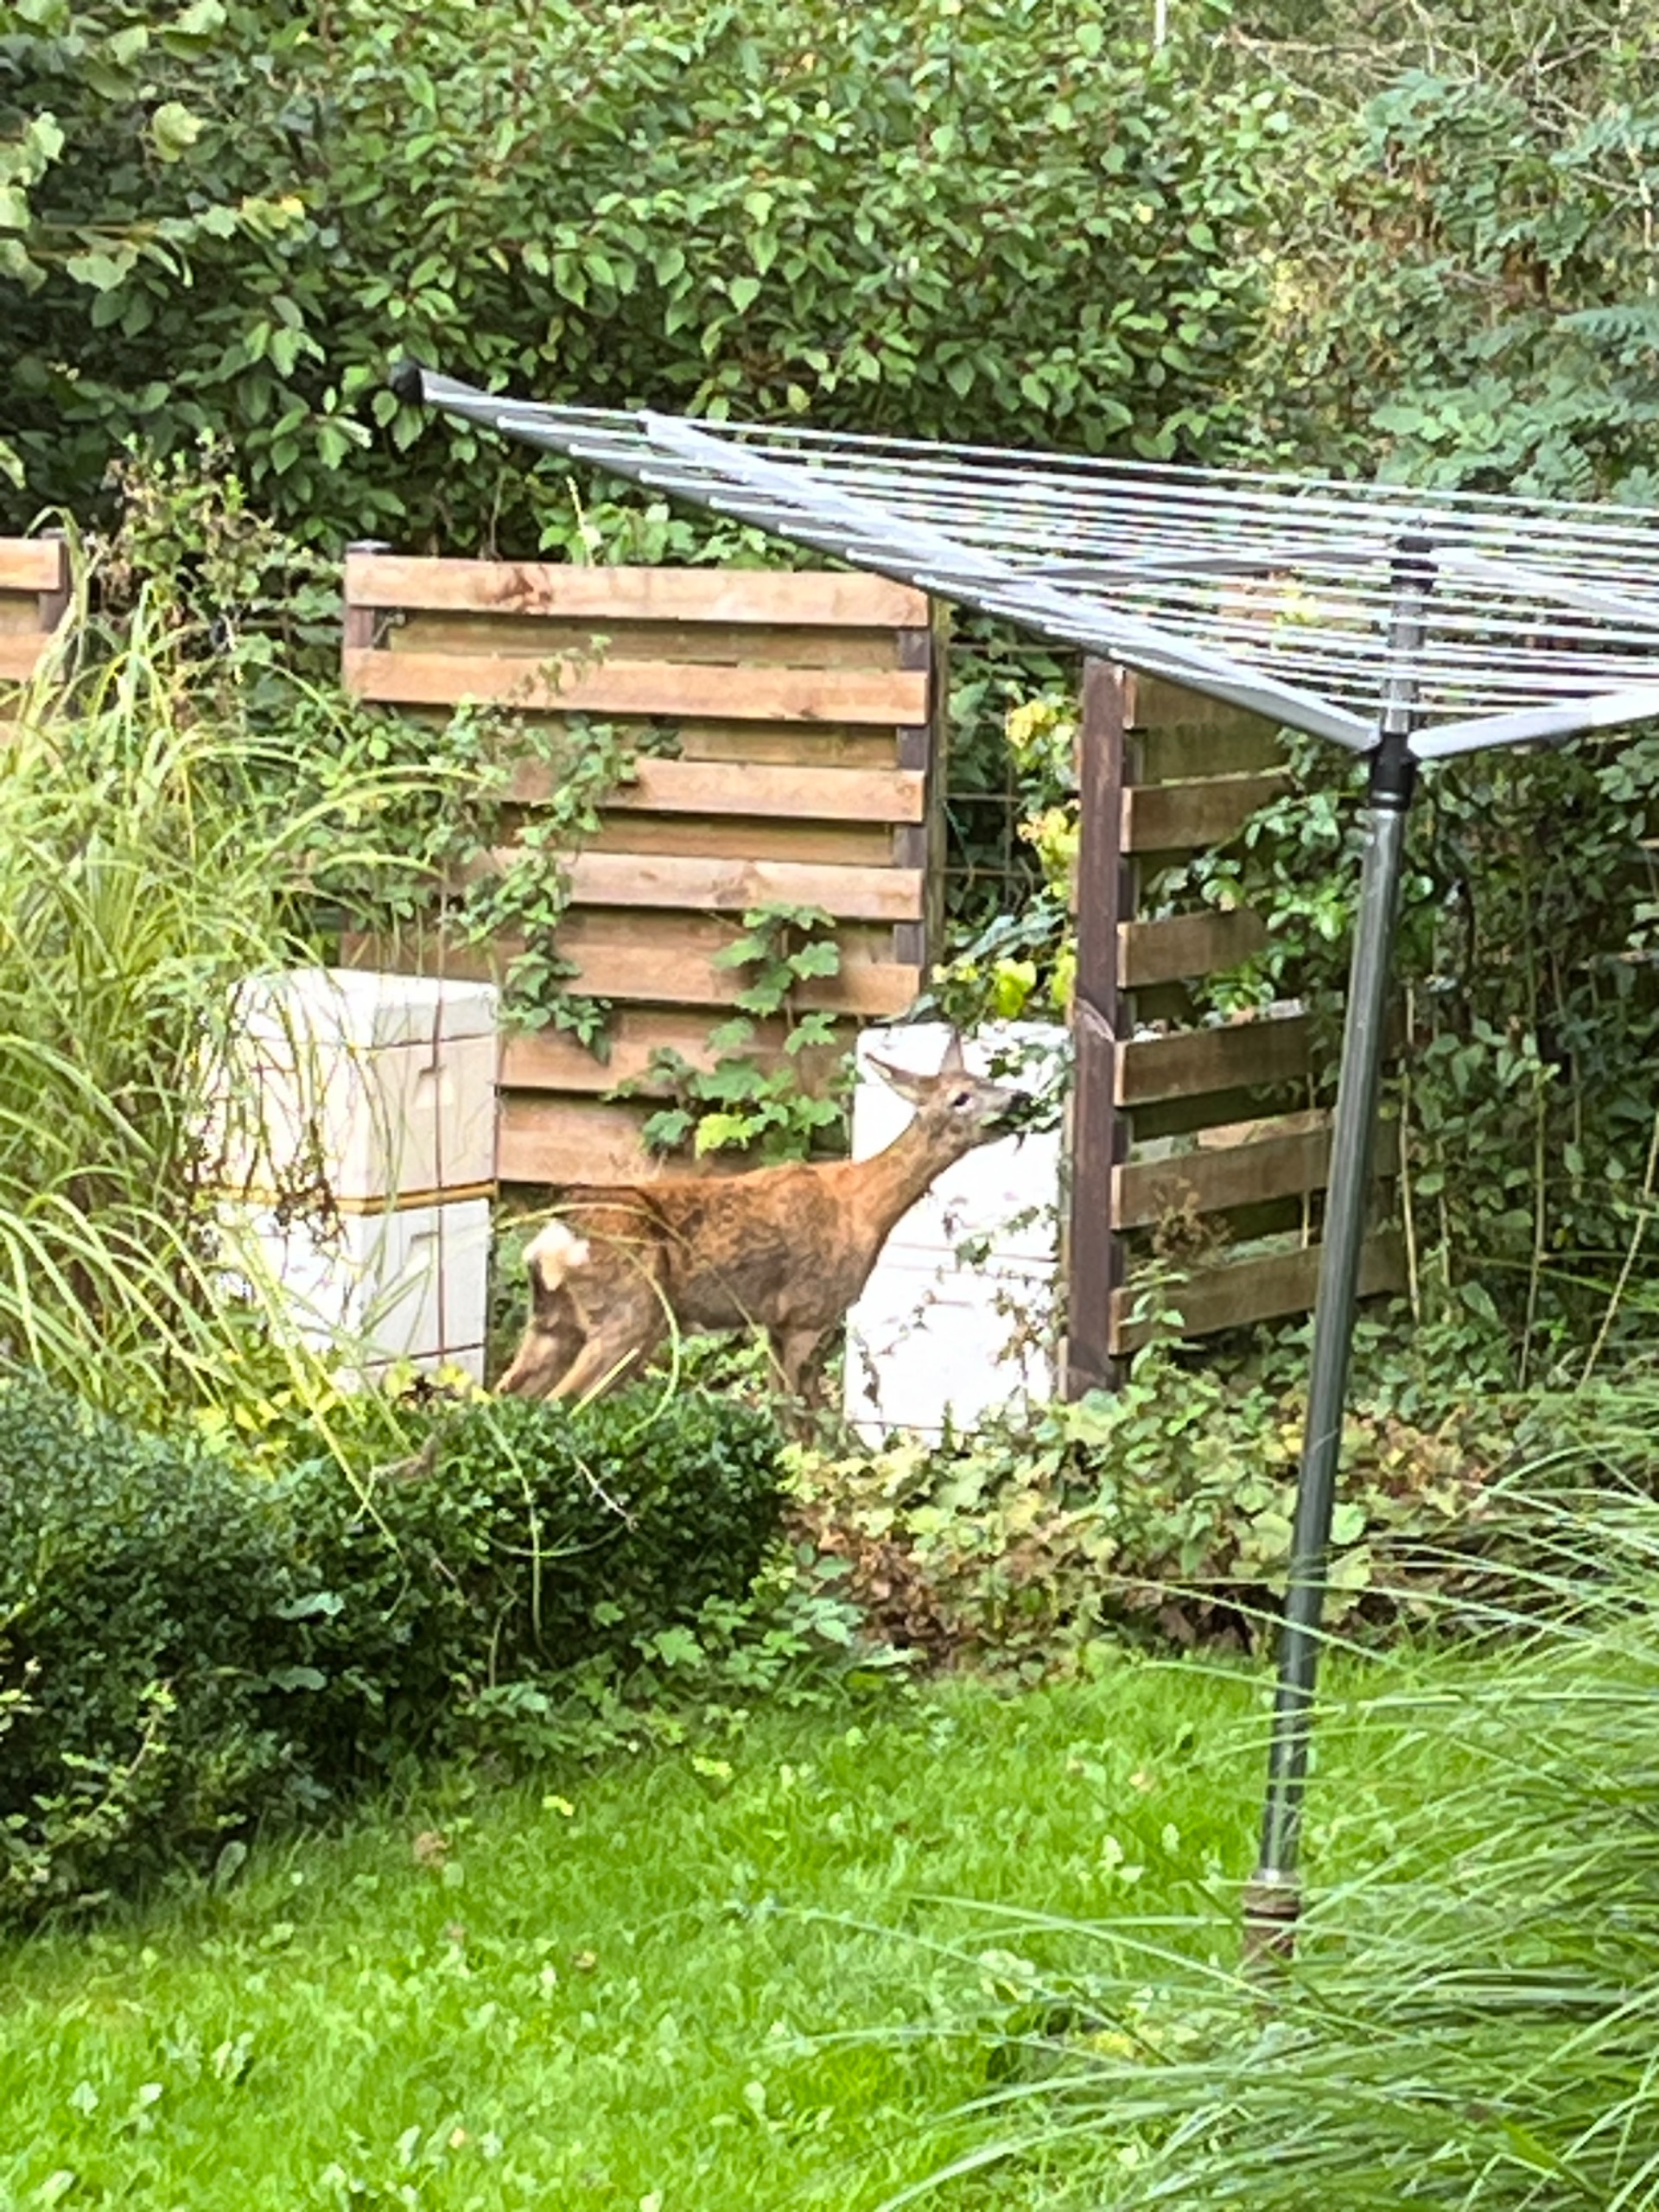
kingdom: Animalia
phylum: Chordata
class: Mammalia
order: Artiodactyla
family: Cervidae
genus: Capreolus
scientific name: Capreolus capreolus
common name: Rådyr
